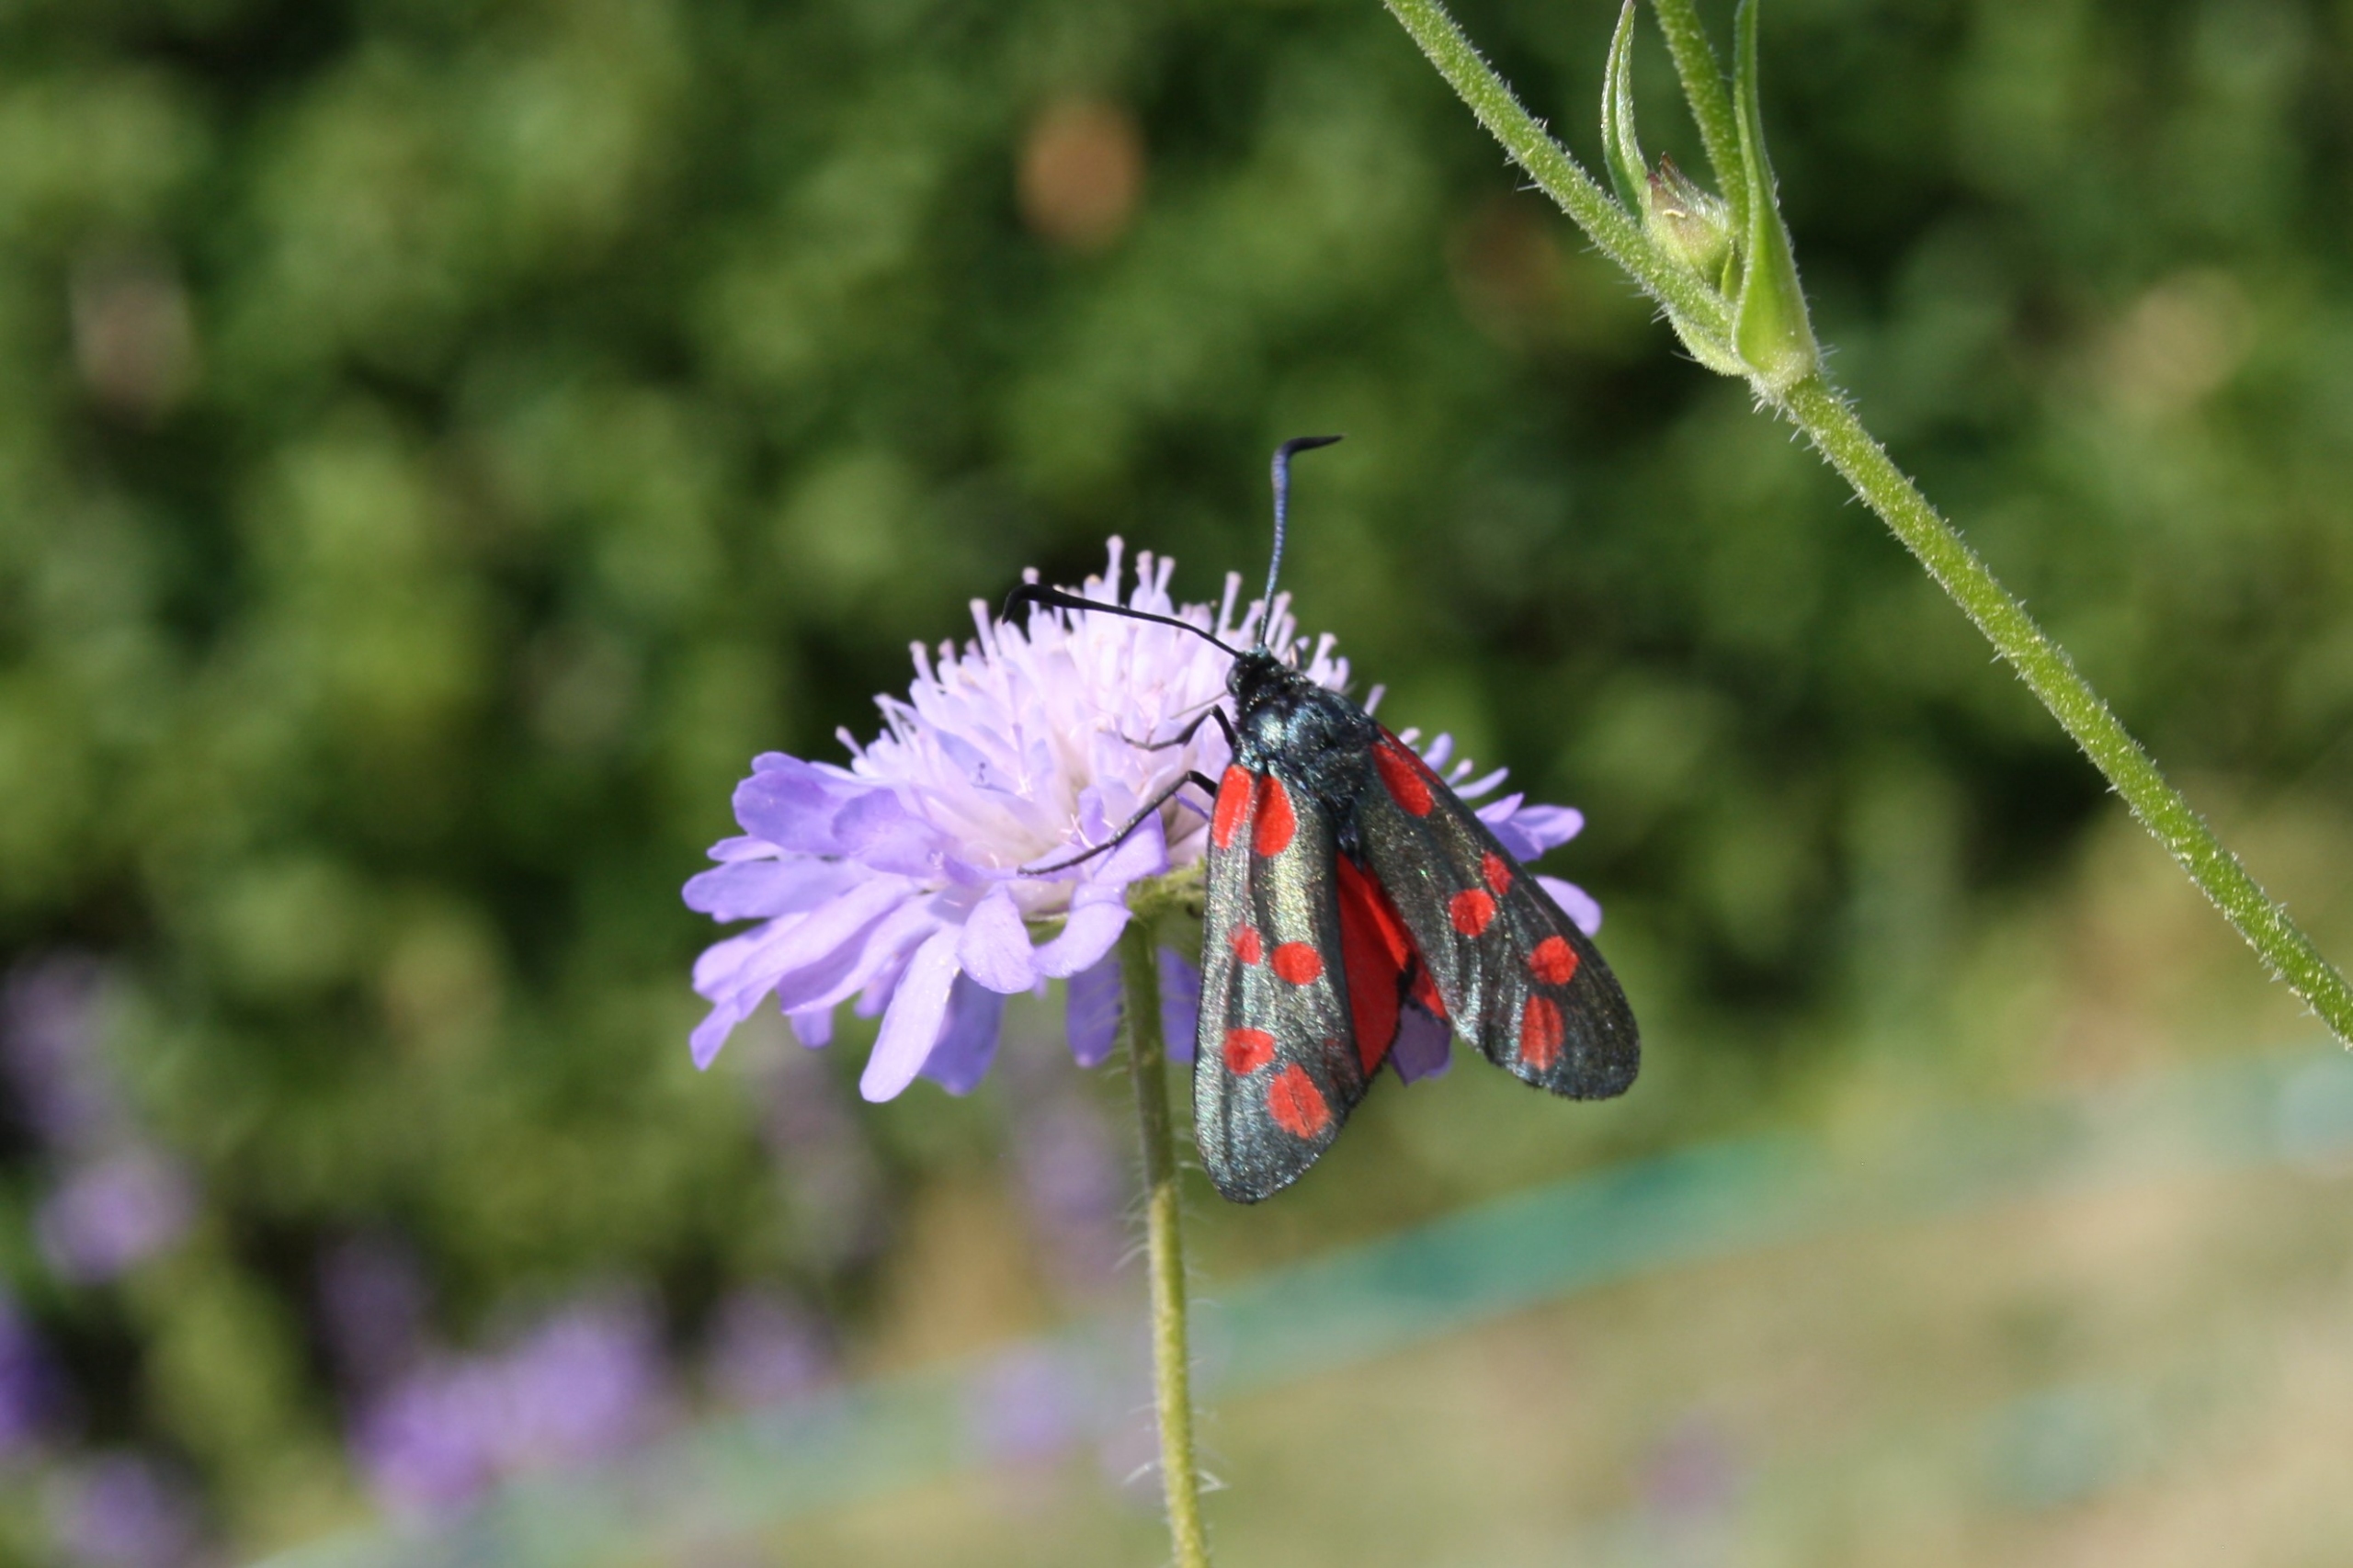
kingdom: Animalia
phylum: Arthropoda
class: Insecta
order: Lepidoptera
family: Zygaenidae
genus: Zygaena
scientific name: Zygaena filipendulae
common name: Seksplettet køllesværmer
